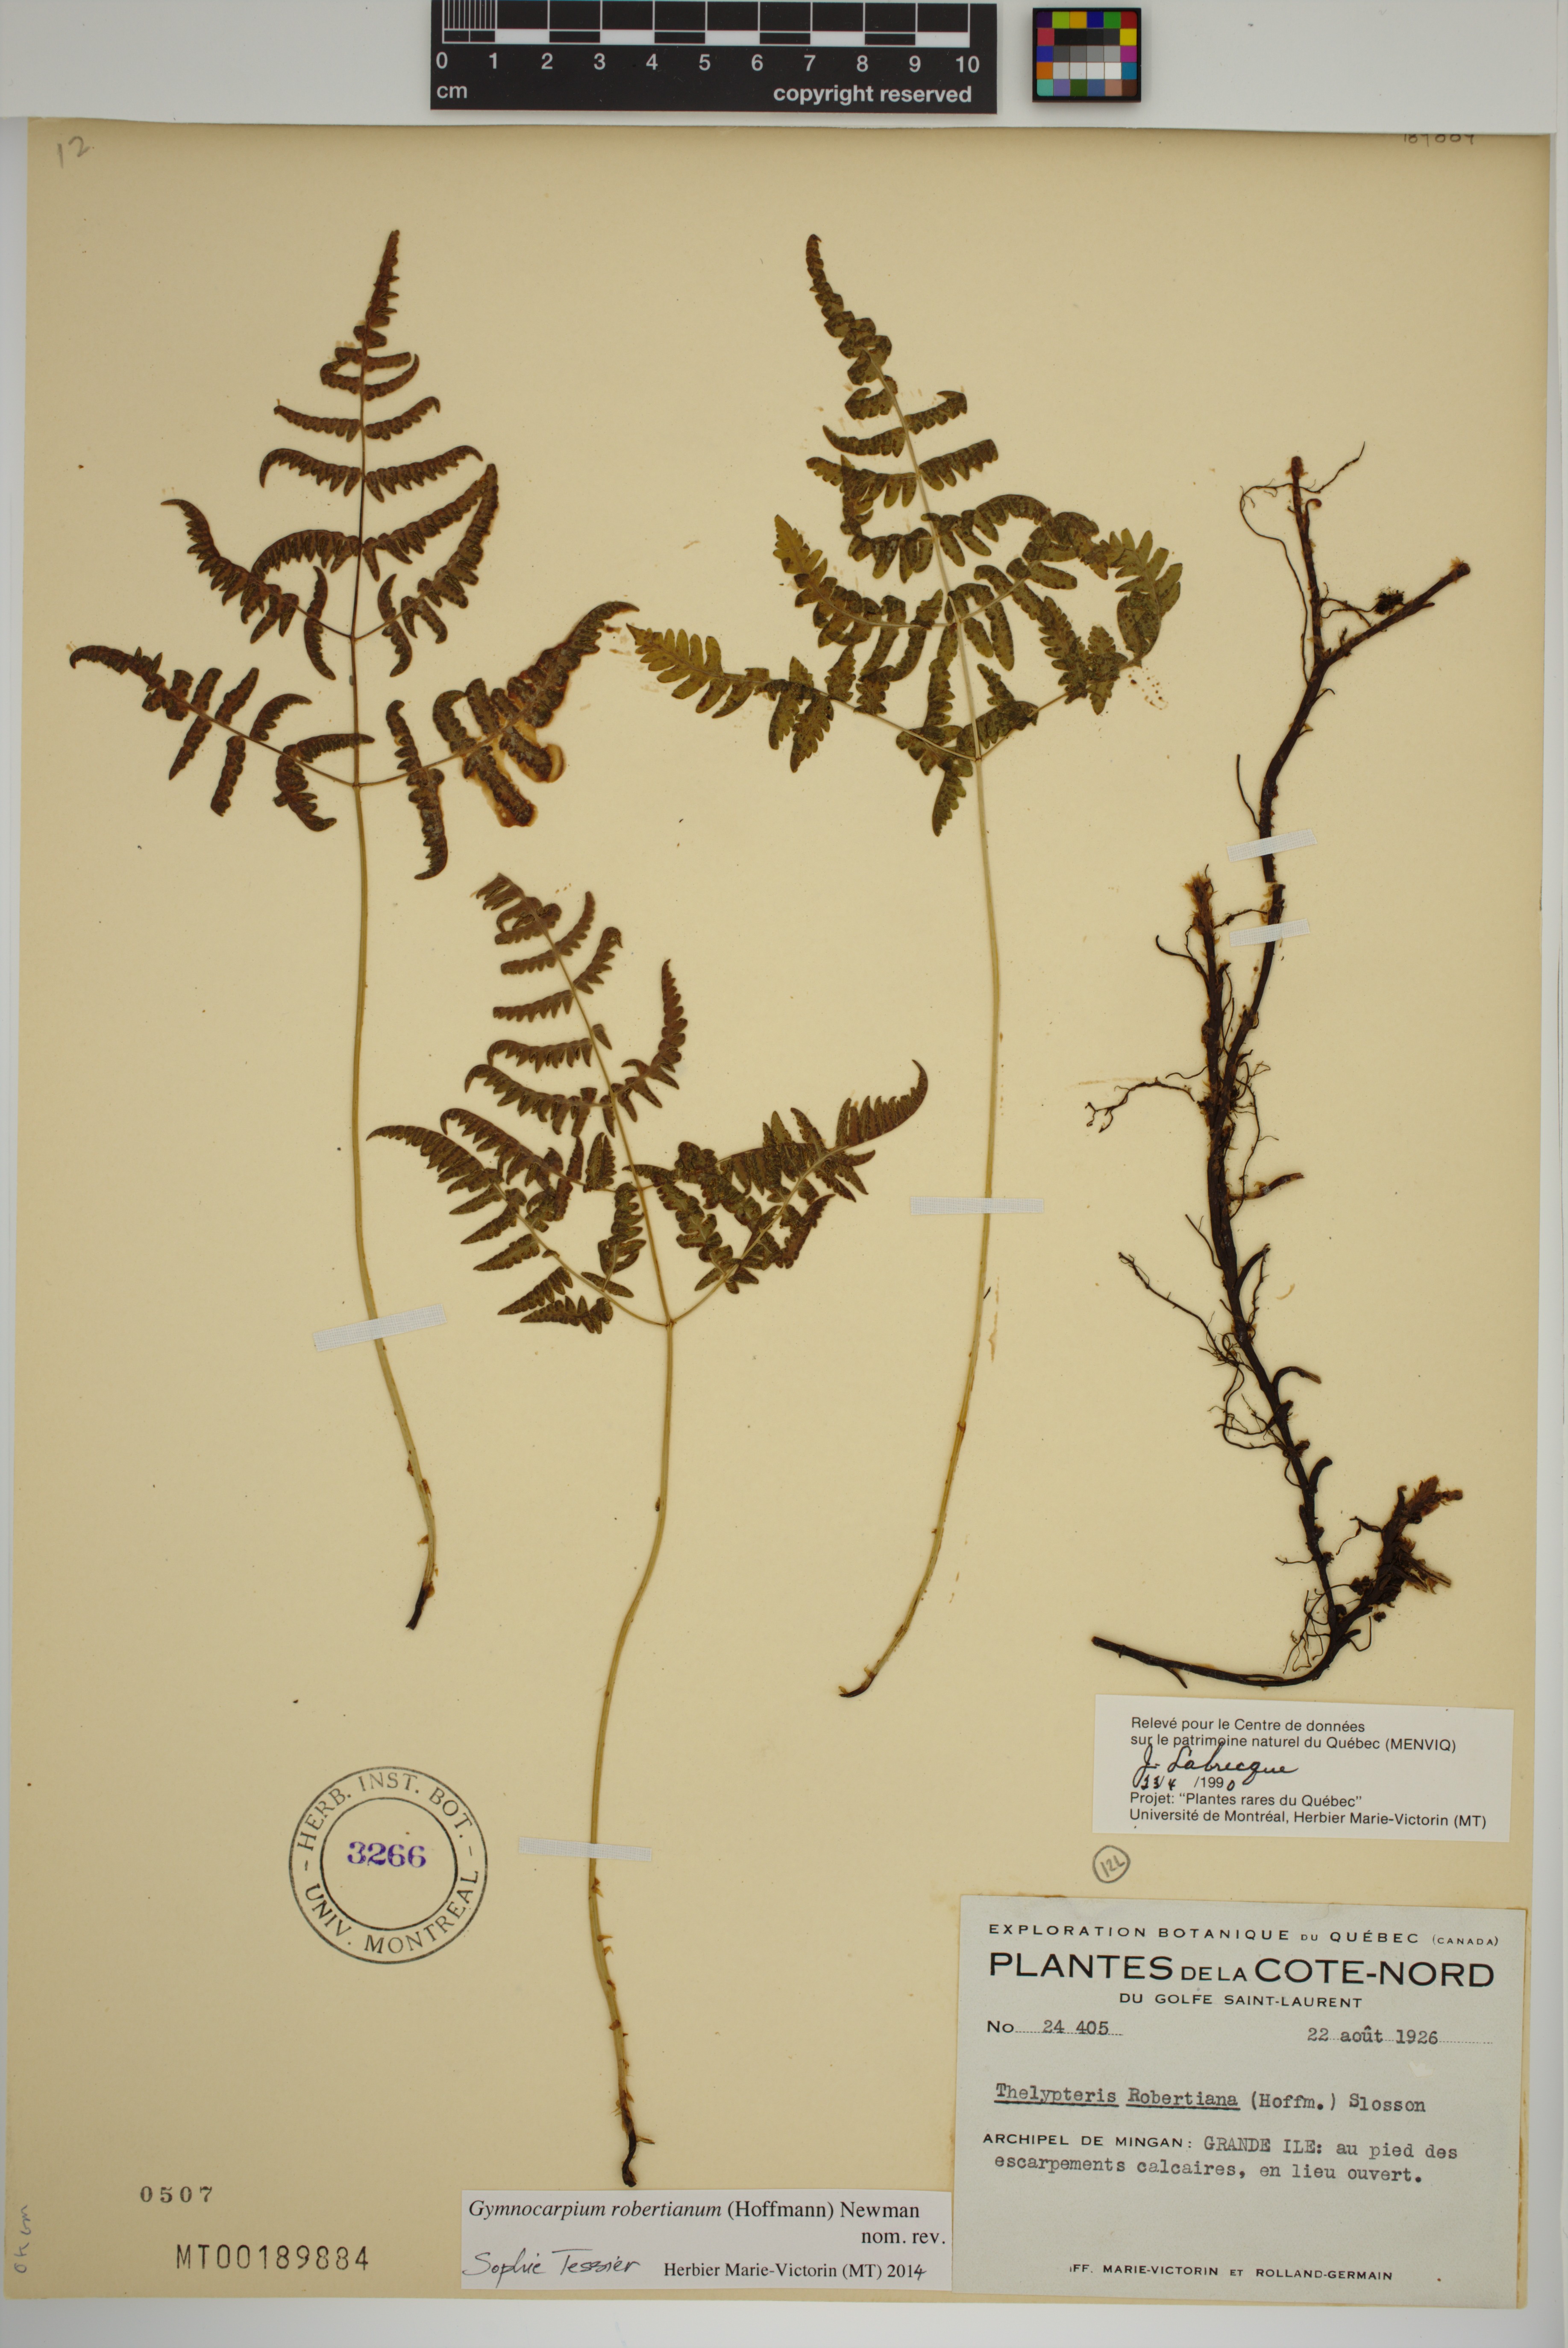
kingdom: Plantae
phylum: Tracheophyta
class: Polypodiopsida
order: Polypodiales
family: Cystopteridaceae
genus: Gymnocarpium
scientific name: Gymnocarpium robertianum
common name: Limestone fern
